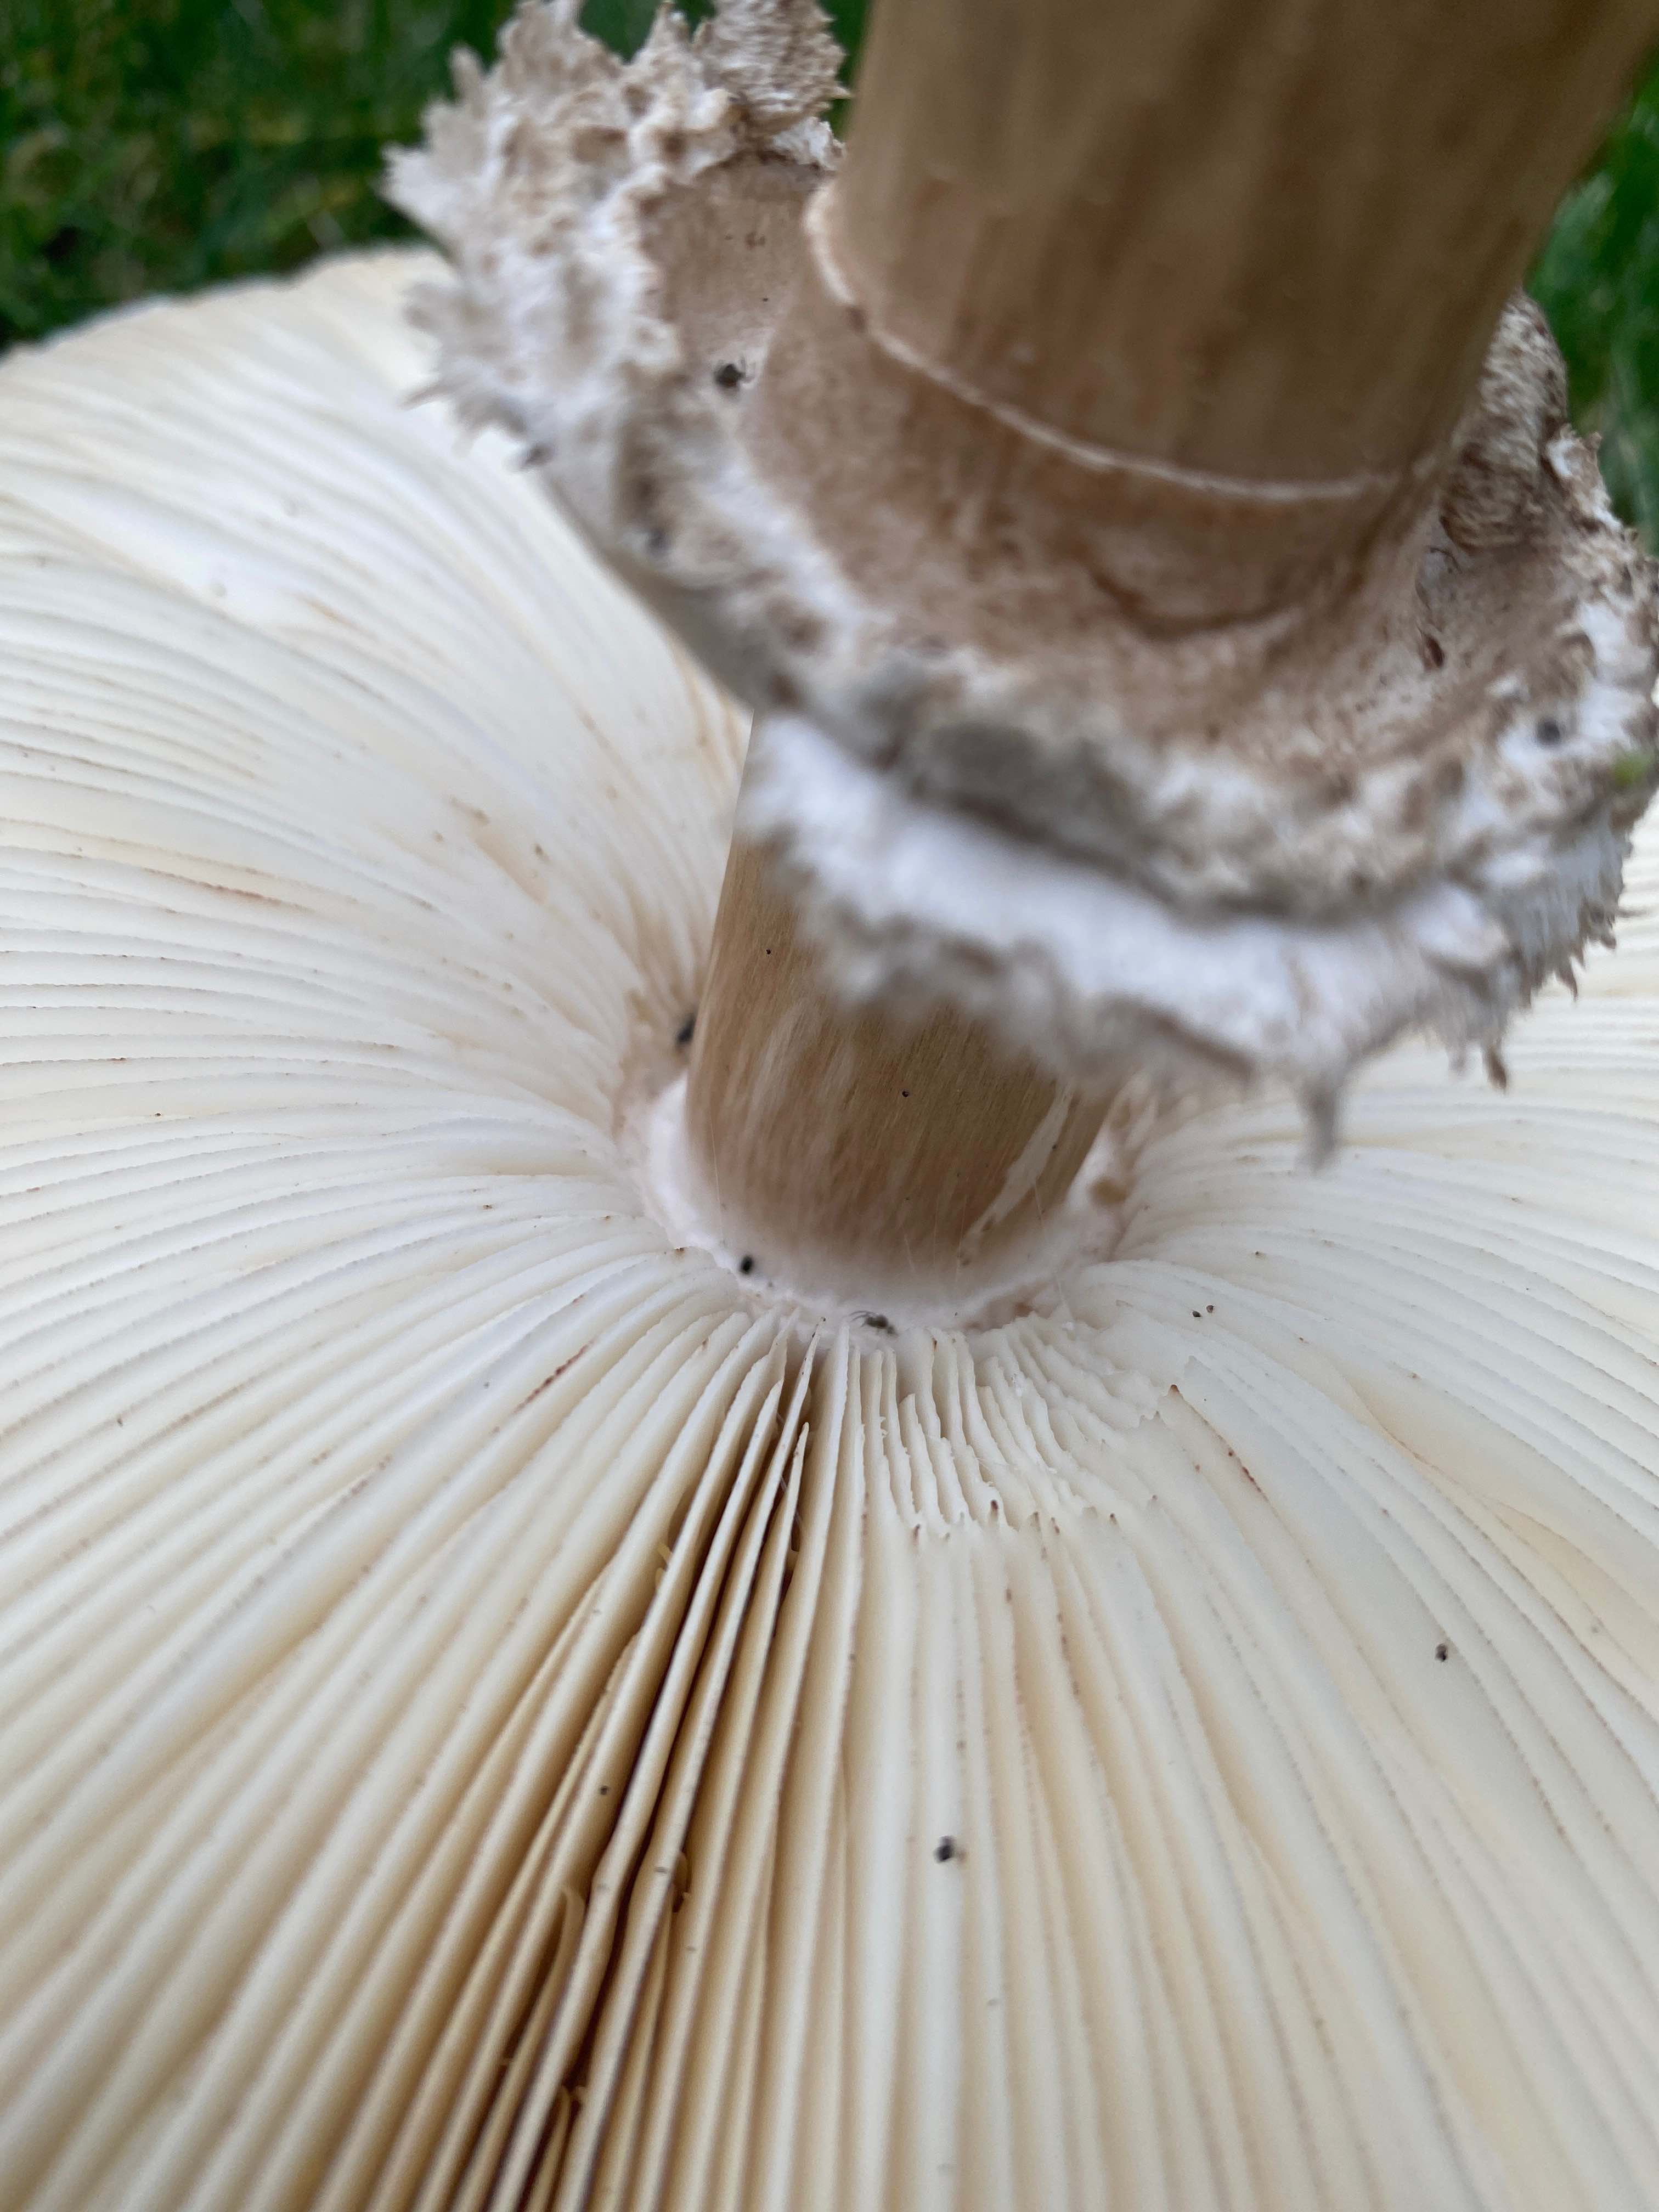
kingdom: Fungi
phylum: Basidiomycota
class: Agaricomycetes
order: Agaricales
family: Agaricaceae
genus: Chlorophyllum
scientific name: Chlorophyllum rhacodes
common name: ægte rabarberhat
